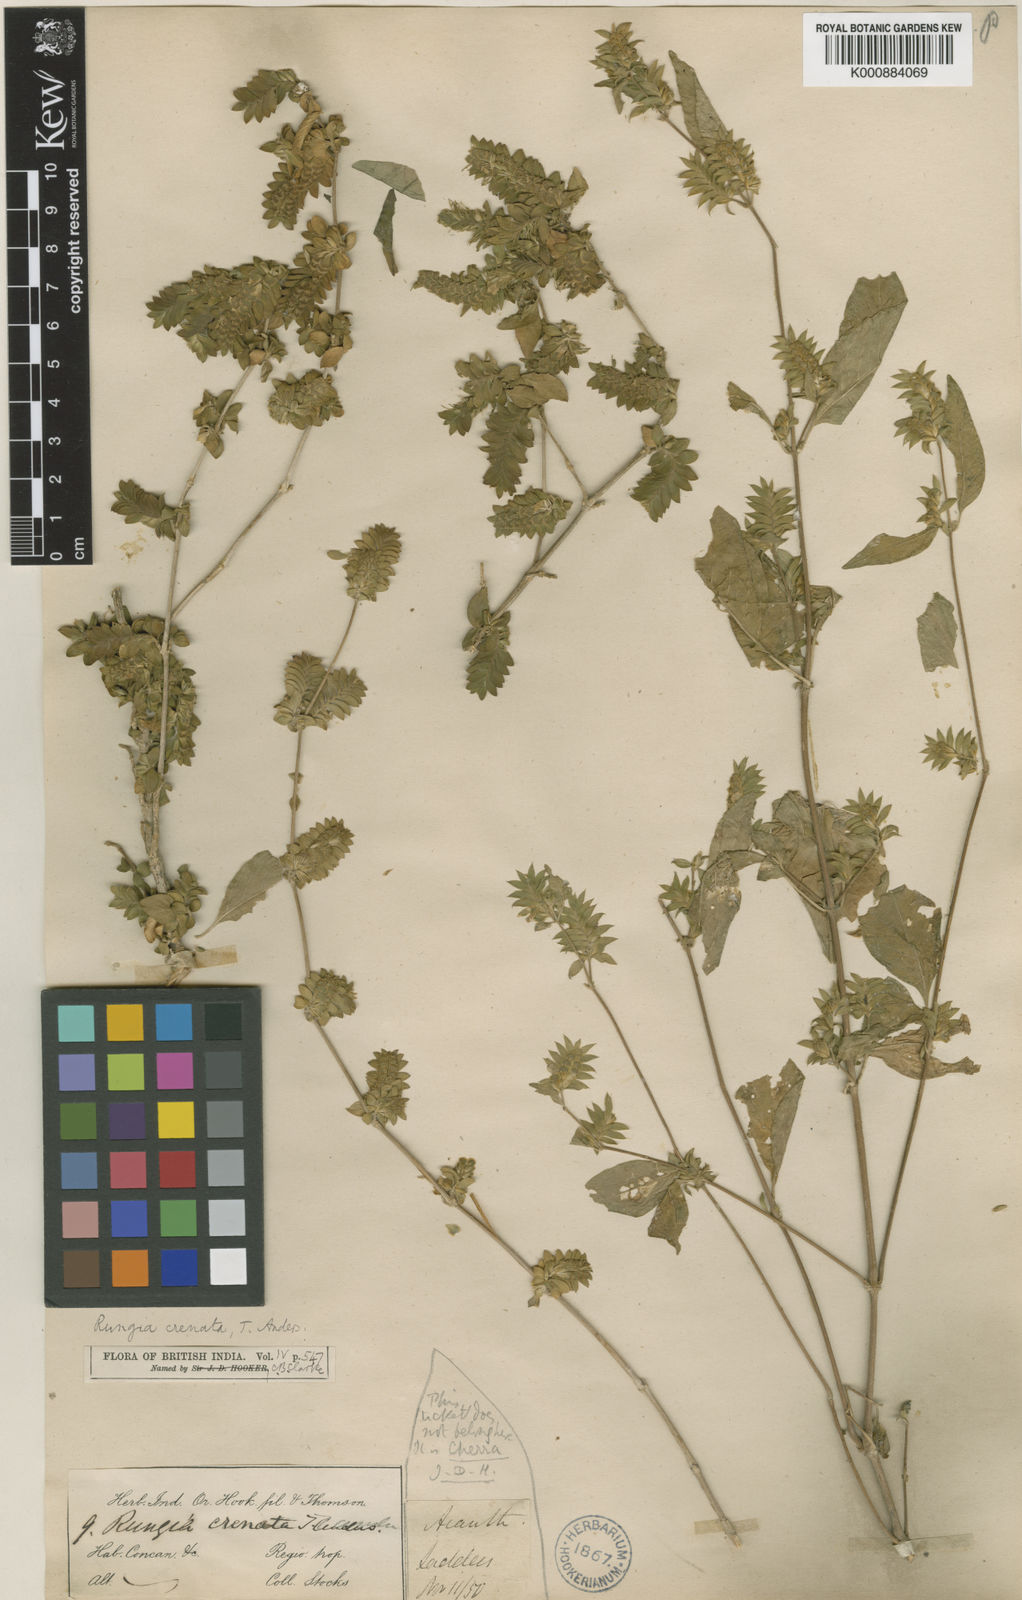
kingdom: Plantae
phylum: Tracheophyta
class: Magnoliopsida
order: Lamiales
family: Acanthaceae
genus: Justicia
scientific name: Justicia crenata
